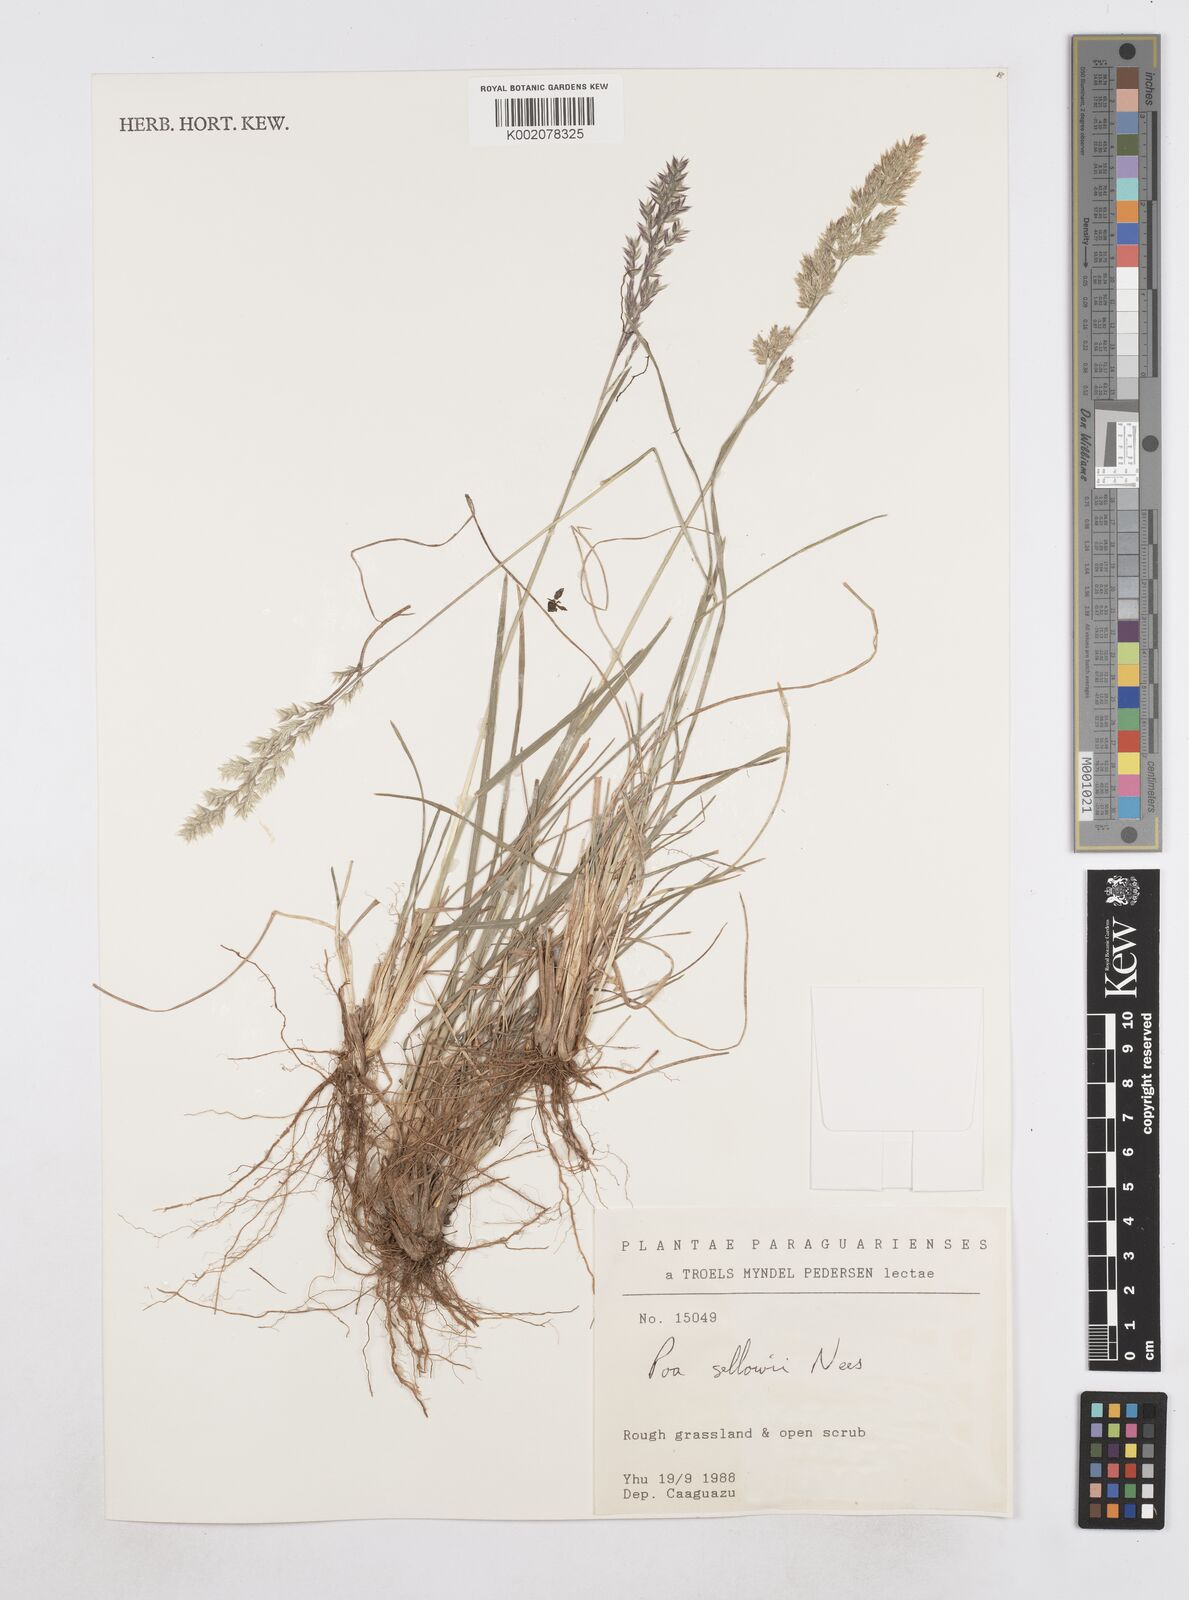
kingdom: Plantae
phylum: Tracheophyta
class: Liliopsida
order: Poales
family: Poaceae
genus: Poa
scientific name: Poa sellovii
